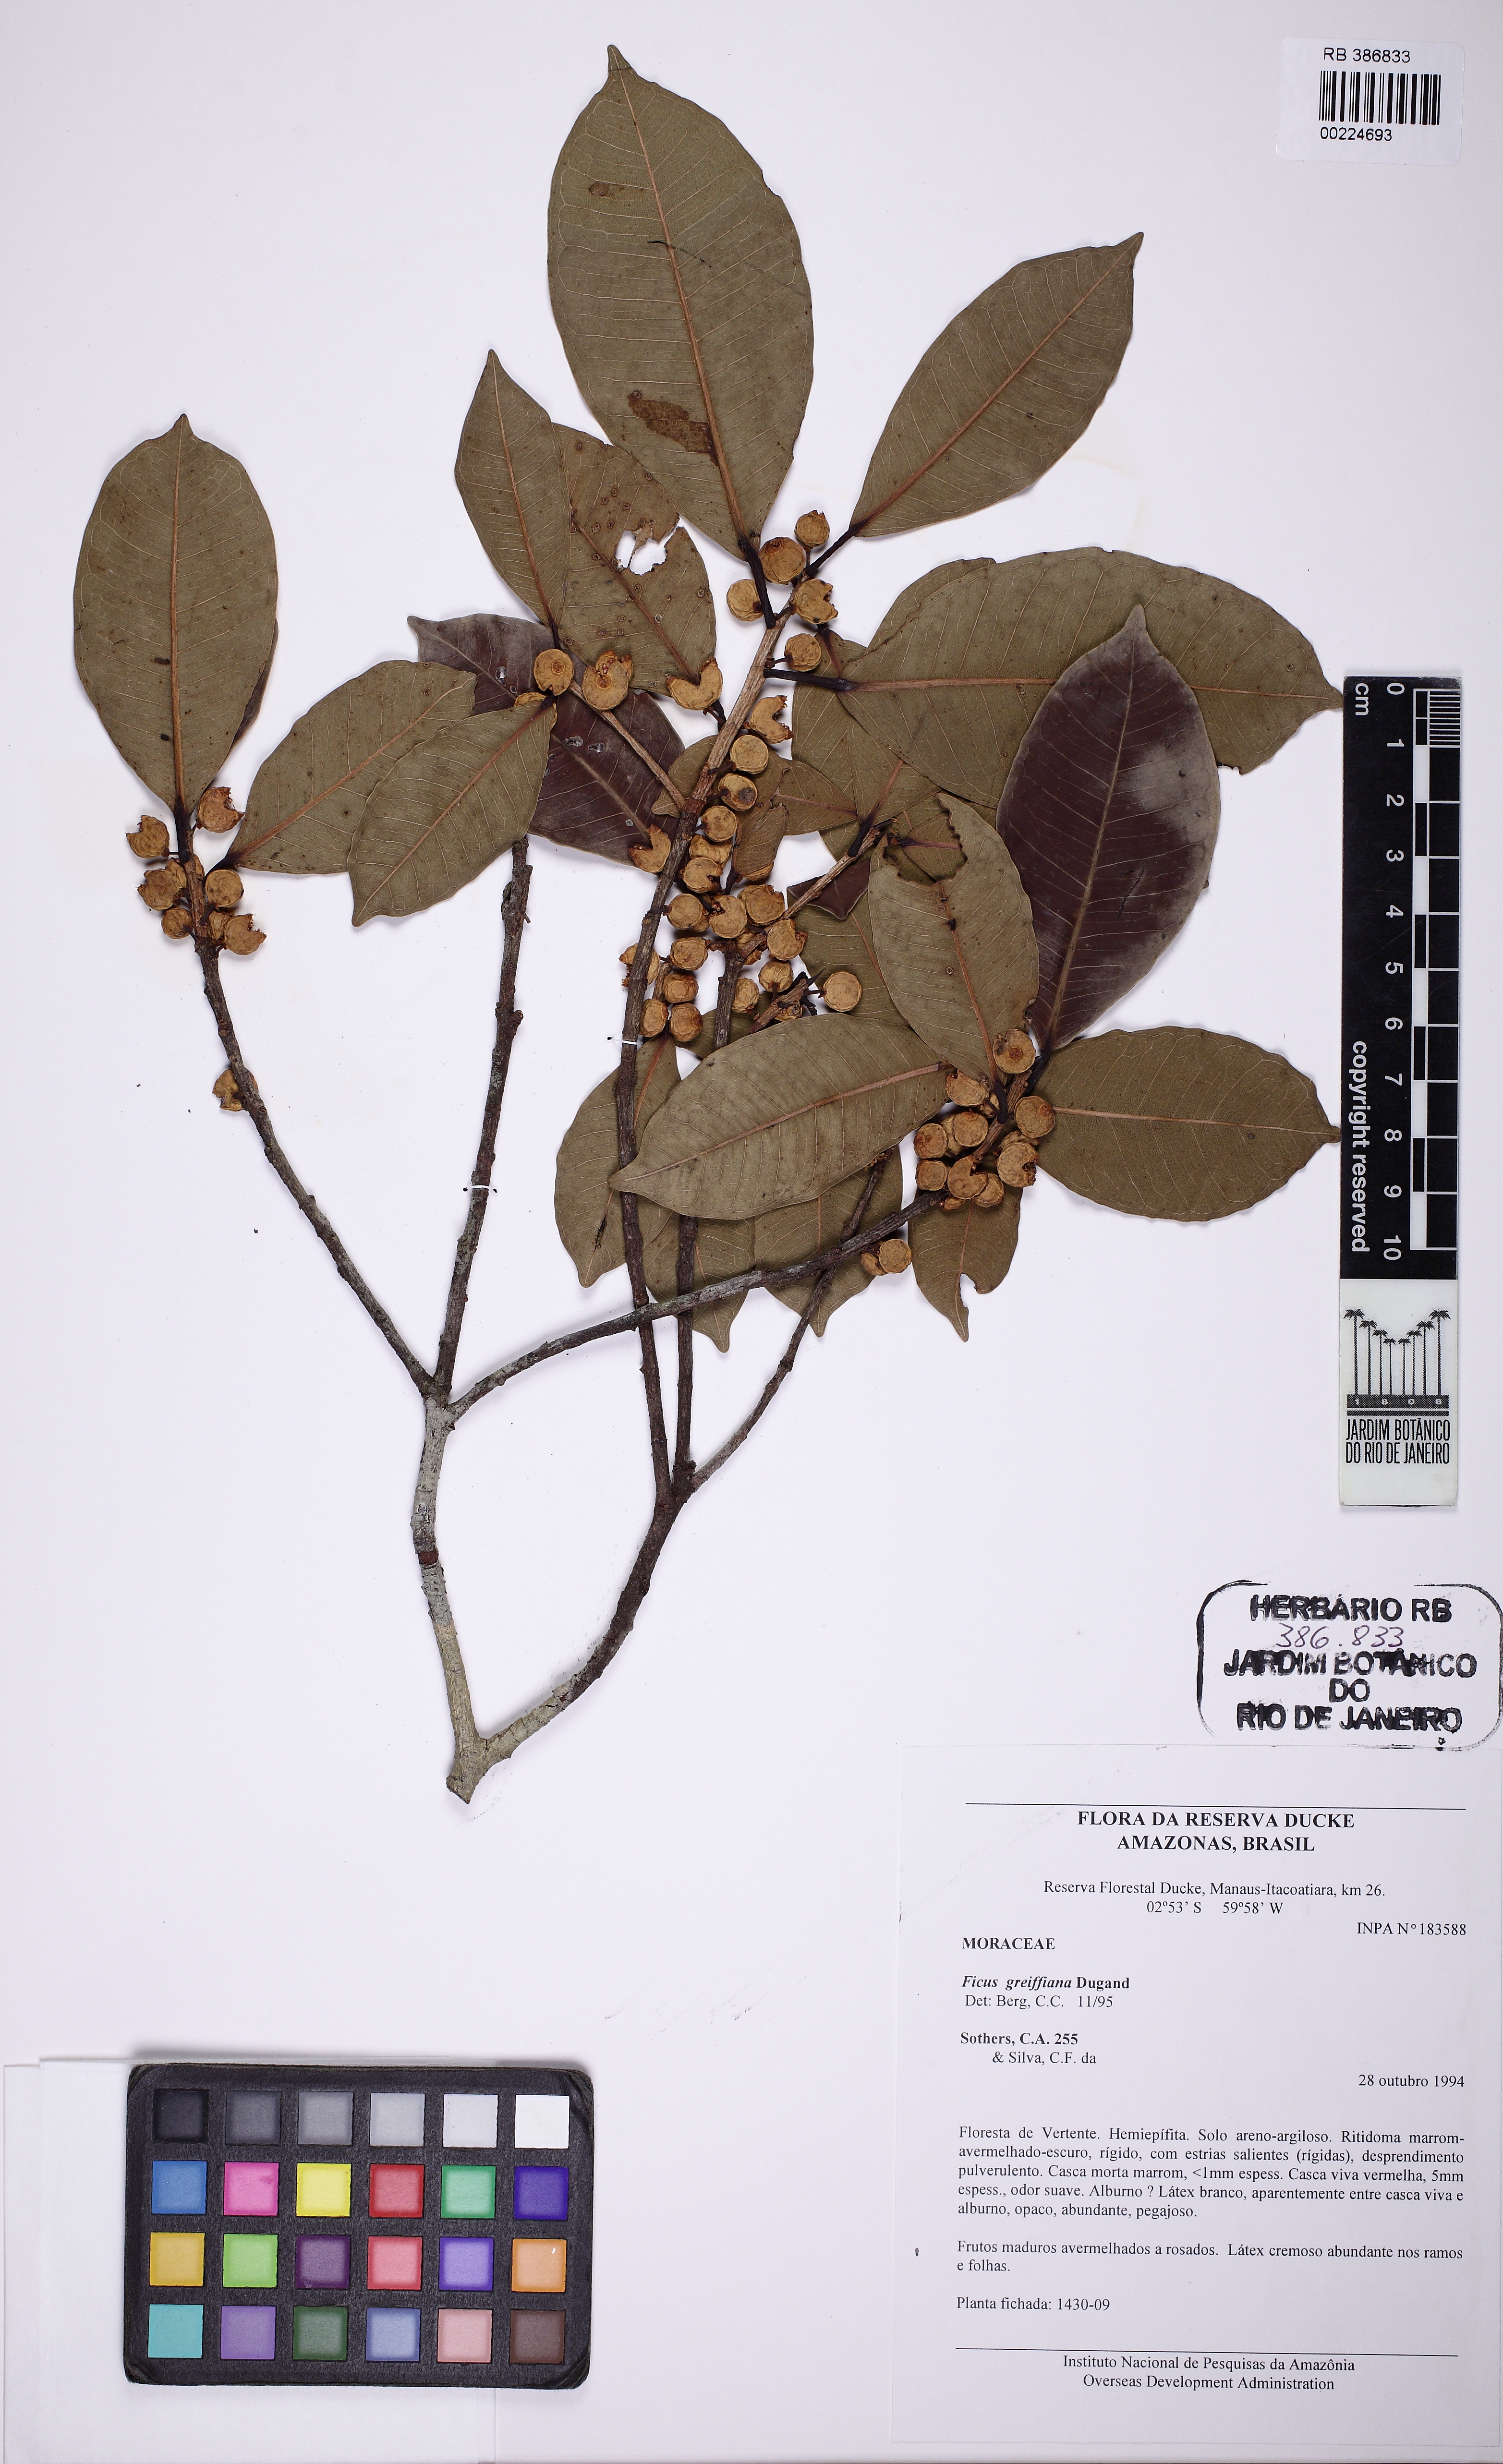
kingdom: Plantae
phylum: Tracheophyta
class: Magnoliopsida
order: Rosales
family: Moraceae
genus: Ficus
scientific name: Ficus mathewsii
